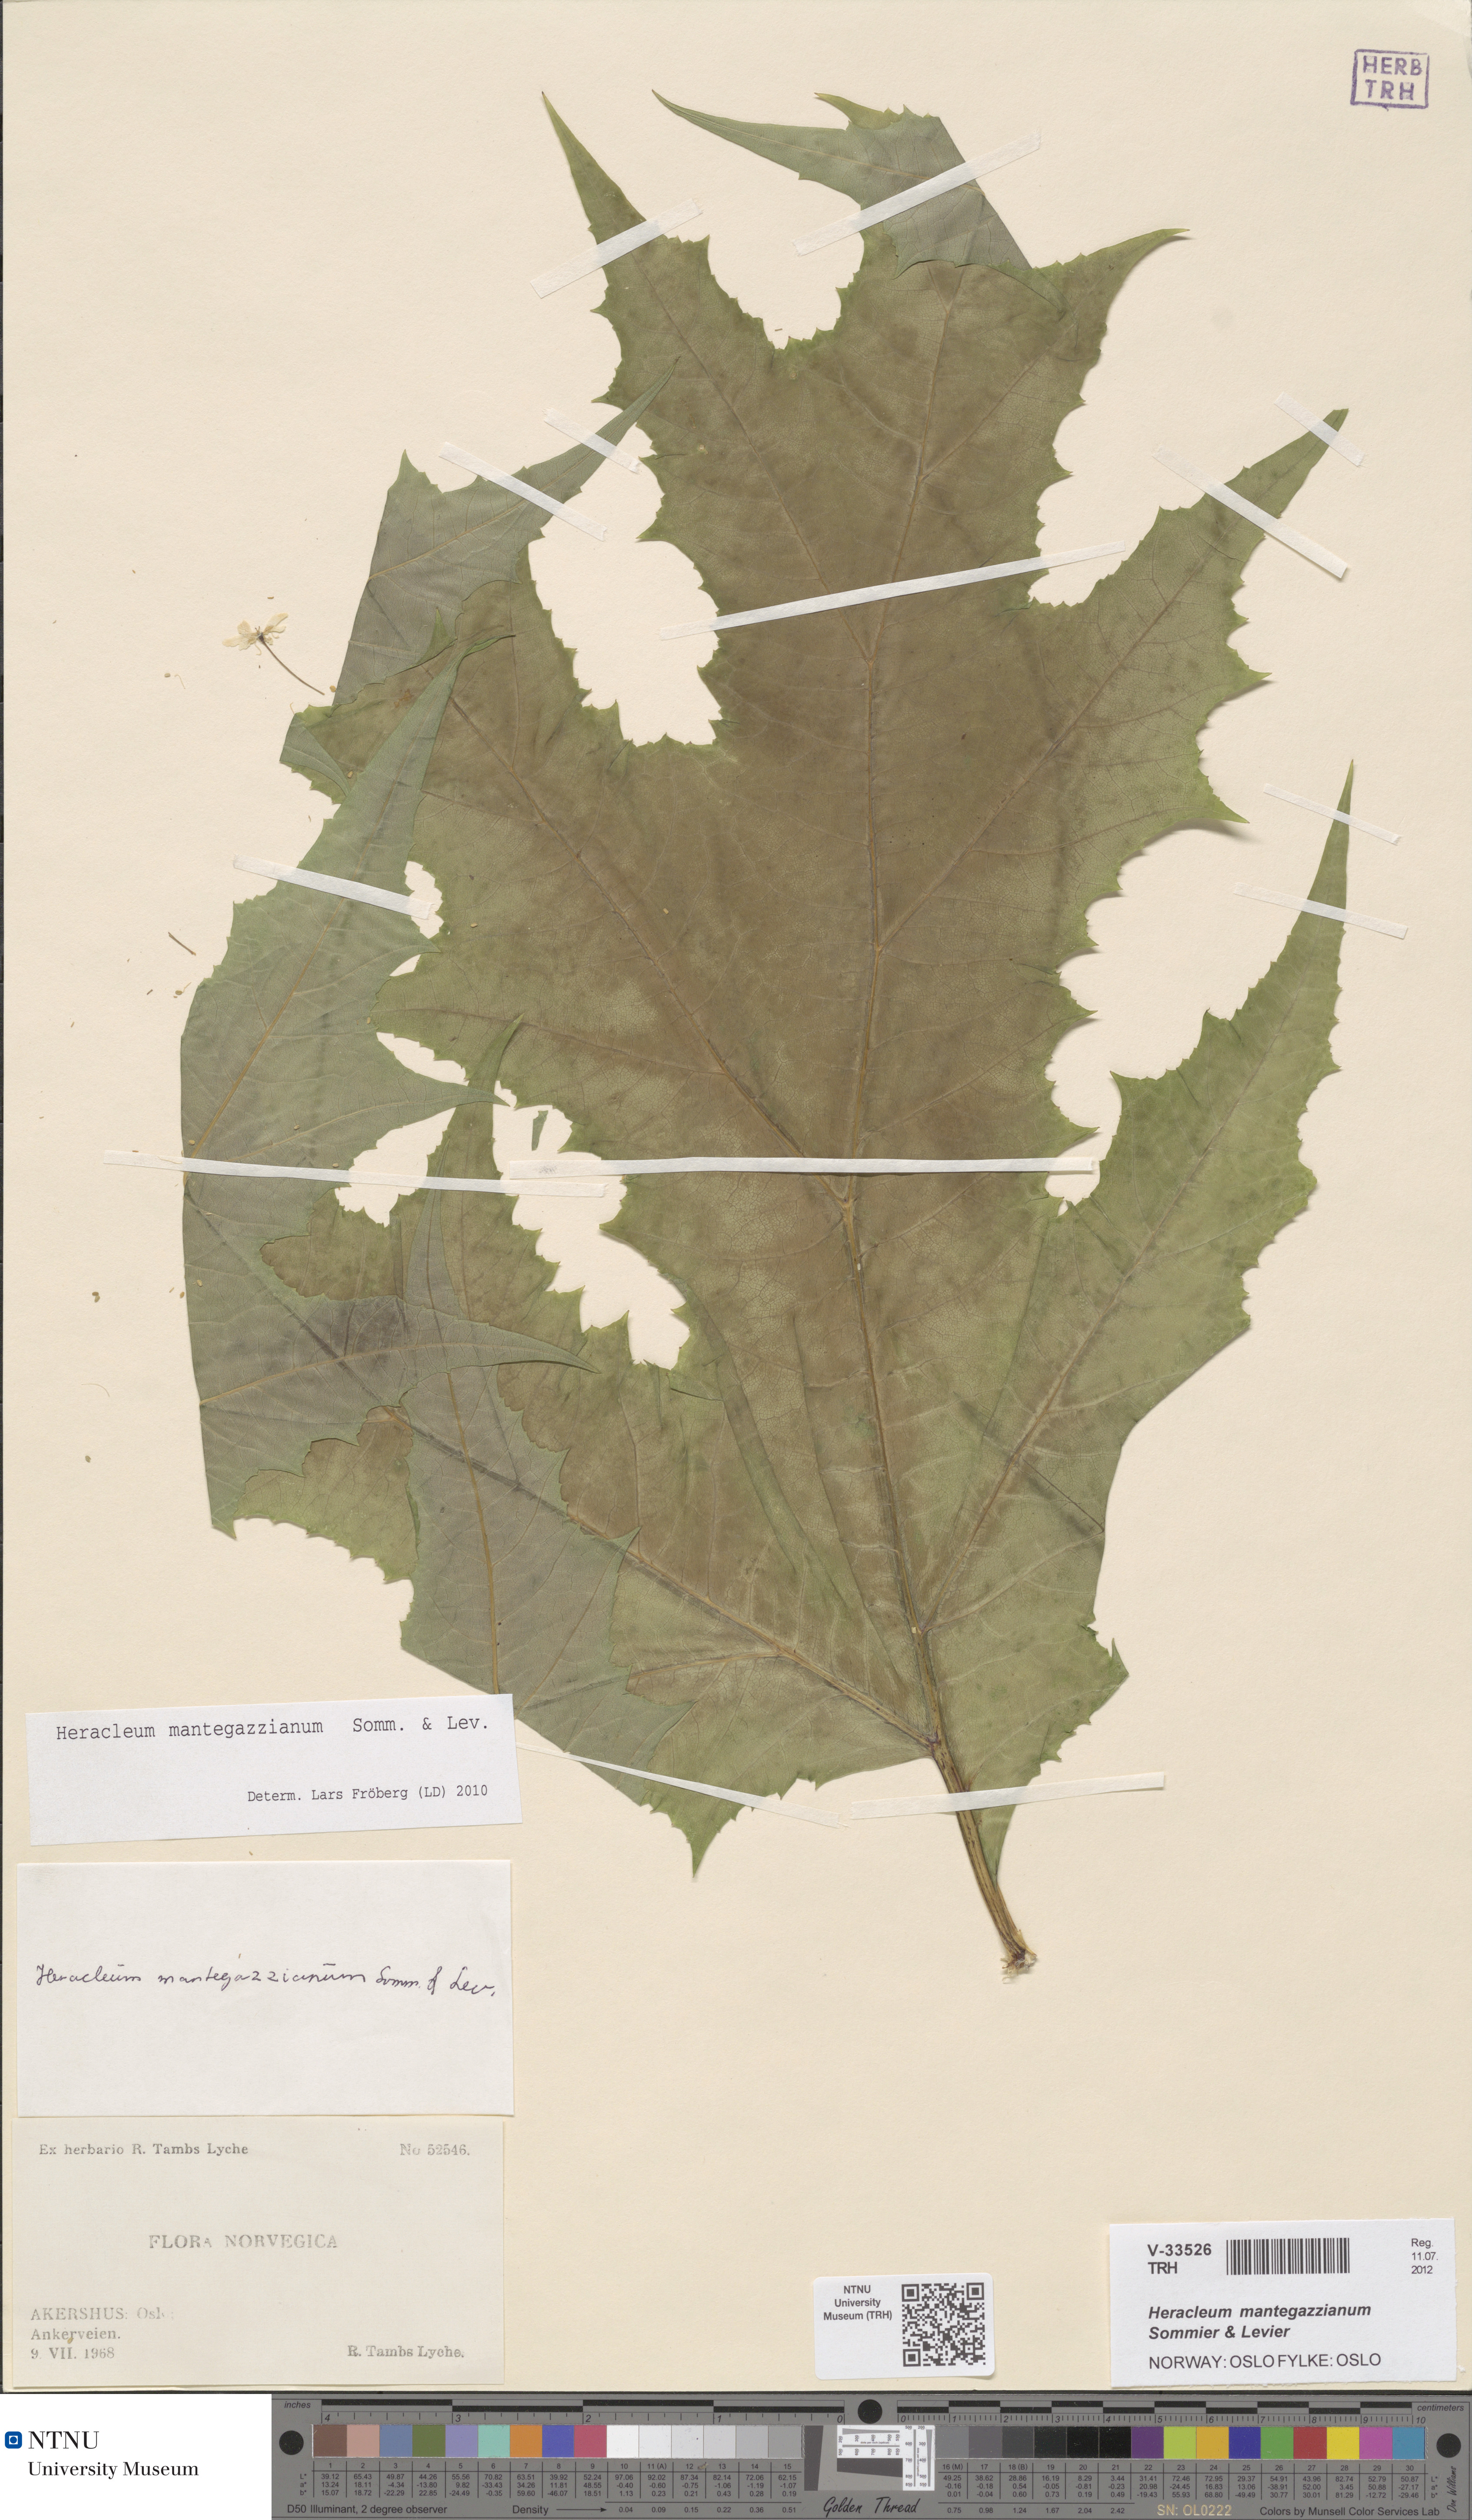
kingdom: Plantae
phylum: Tracheophyta
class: Magnoliopsida
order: Apiales
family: Apiaceae
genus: Heracleum
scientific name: Heracleum mantegazzianum
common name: Giant hogweed
